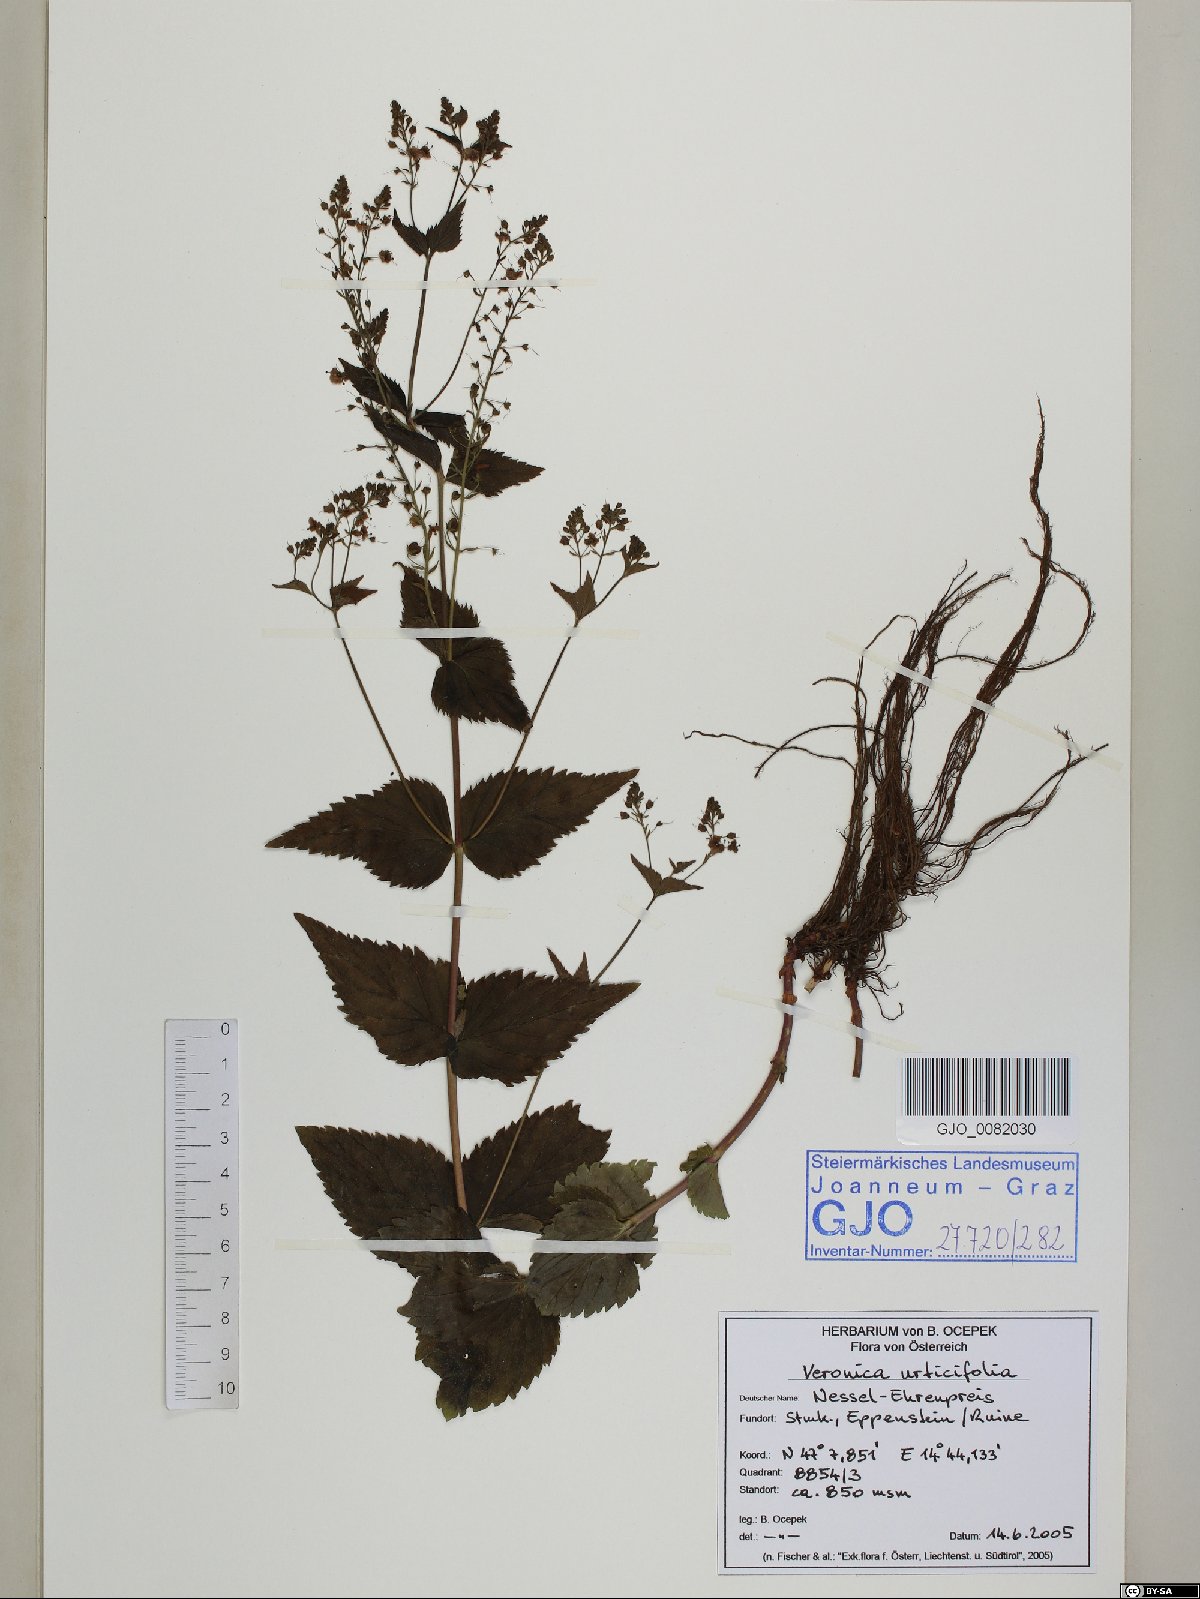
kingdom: Plantae
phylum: Tracheophyta
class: Magnoliopsida
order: Lamiales
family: Plantaginaceae
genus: Veronica
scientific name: Veronica urticifolia
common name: Nettle-leaf speedwell
